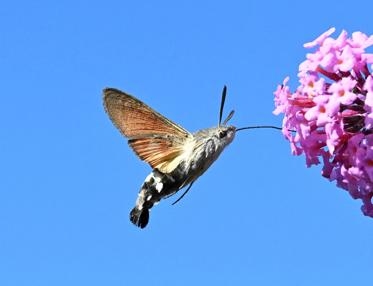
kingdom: Animalia
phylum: Arthropoda
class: Insecta
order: Lepidoptera
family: Sphingidae
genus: Macroglossum
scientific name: Macroglossum stellatarum
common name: Duehale
